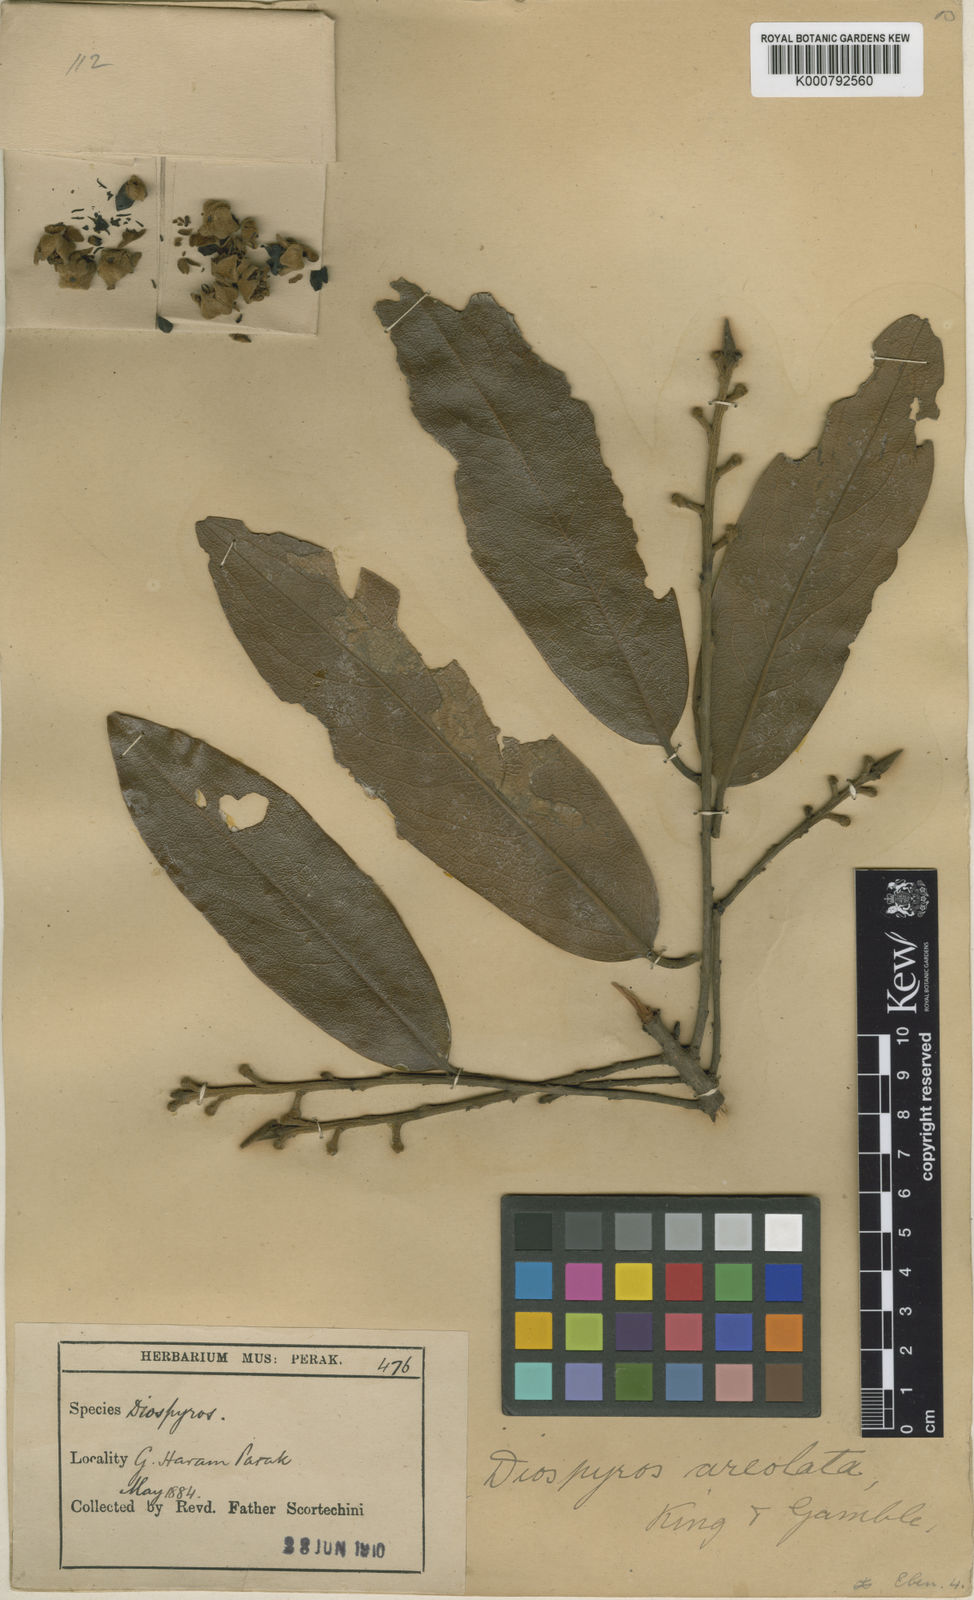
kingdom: Plantae
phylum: Tracheophyta
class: Magnoliopsida
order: Ericales
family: Ebenaceae
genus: Diospyros
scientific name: Diospyros areolata
